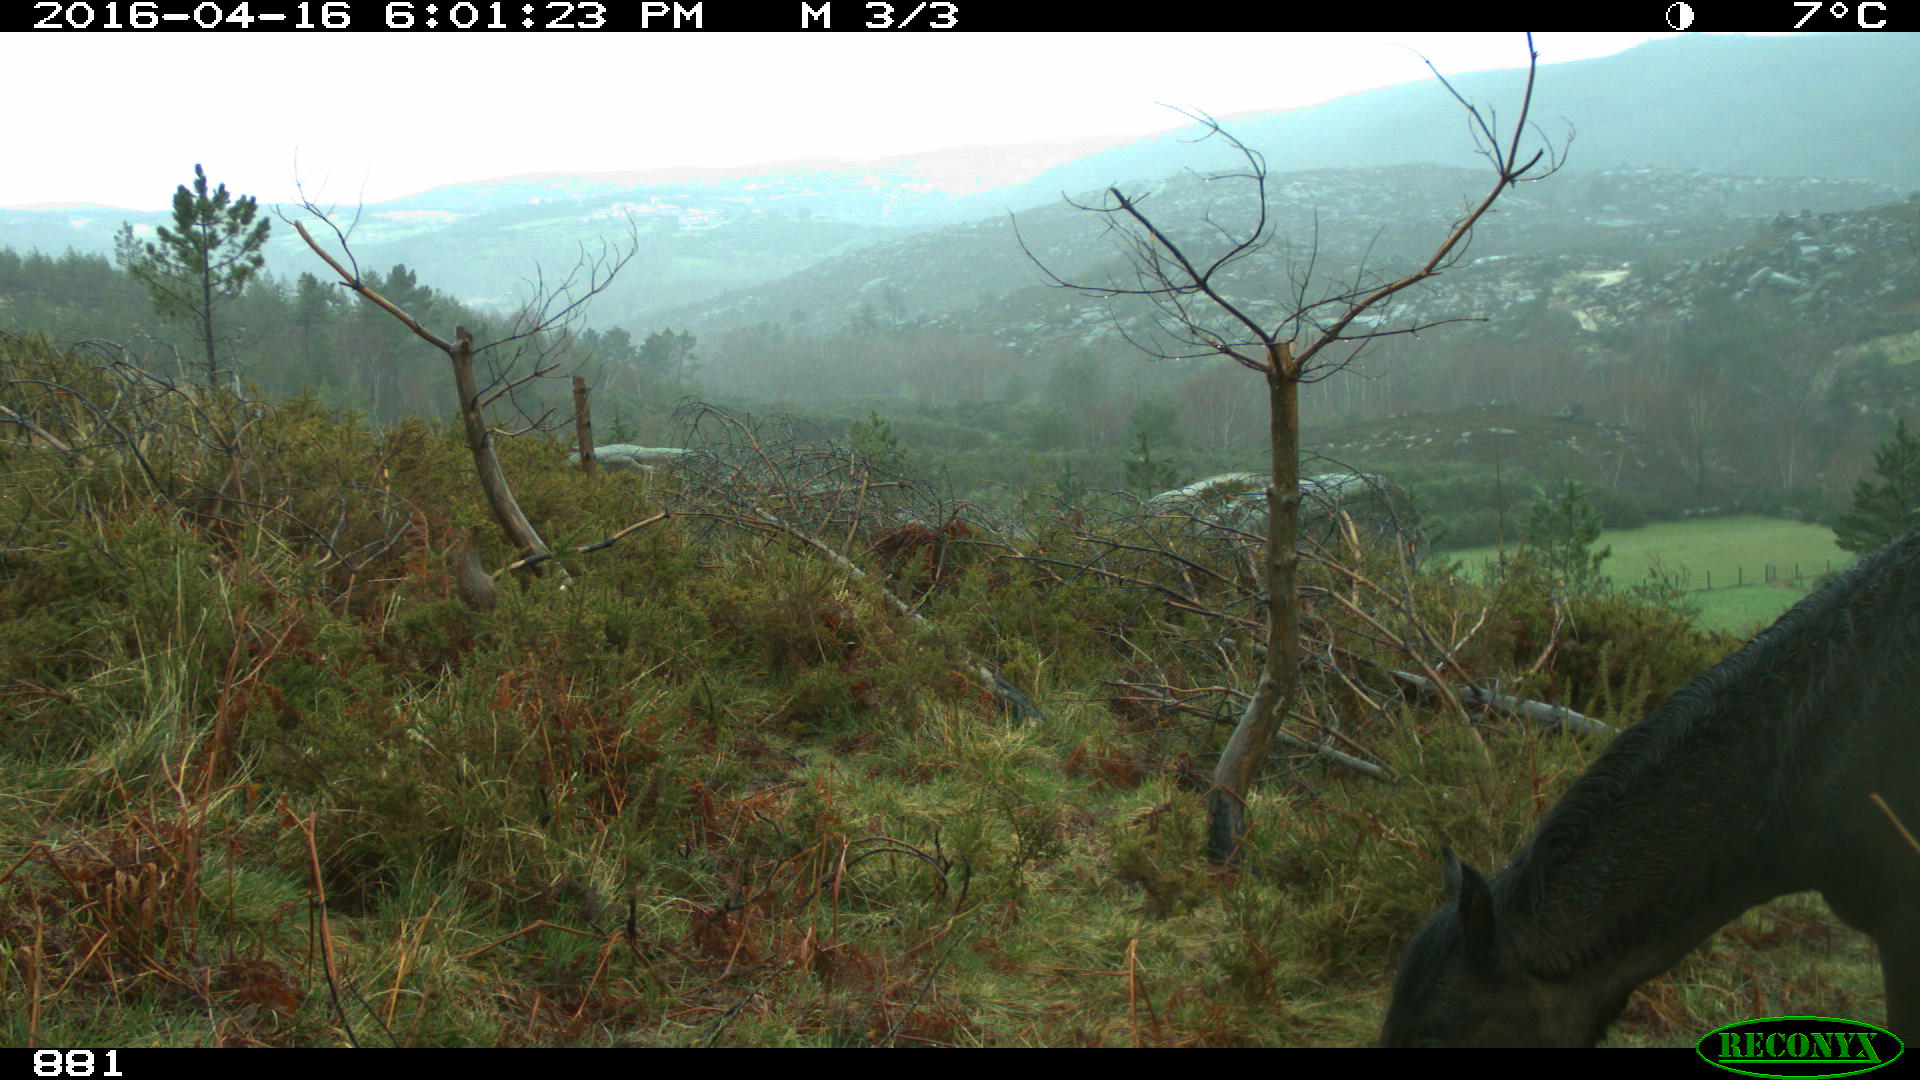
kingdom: Animalia
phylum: Chordata
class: Mammalia
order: Perissodactyla
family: Equidae
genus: Equus
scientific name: Equus caballus
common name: Horse
